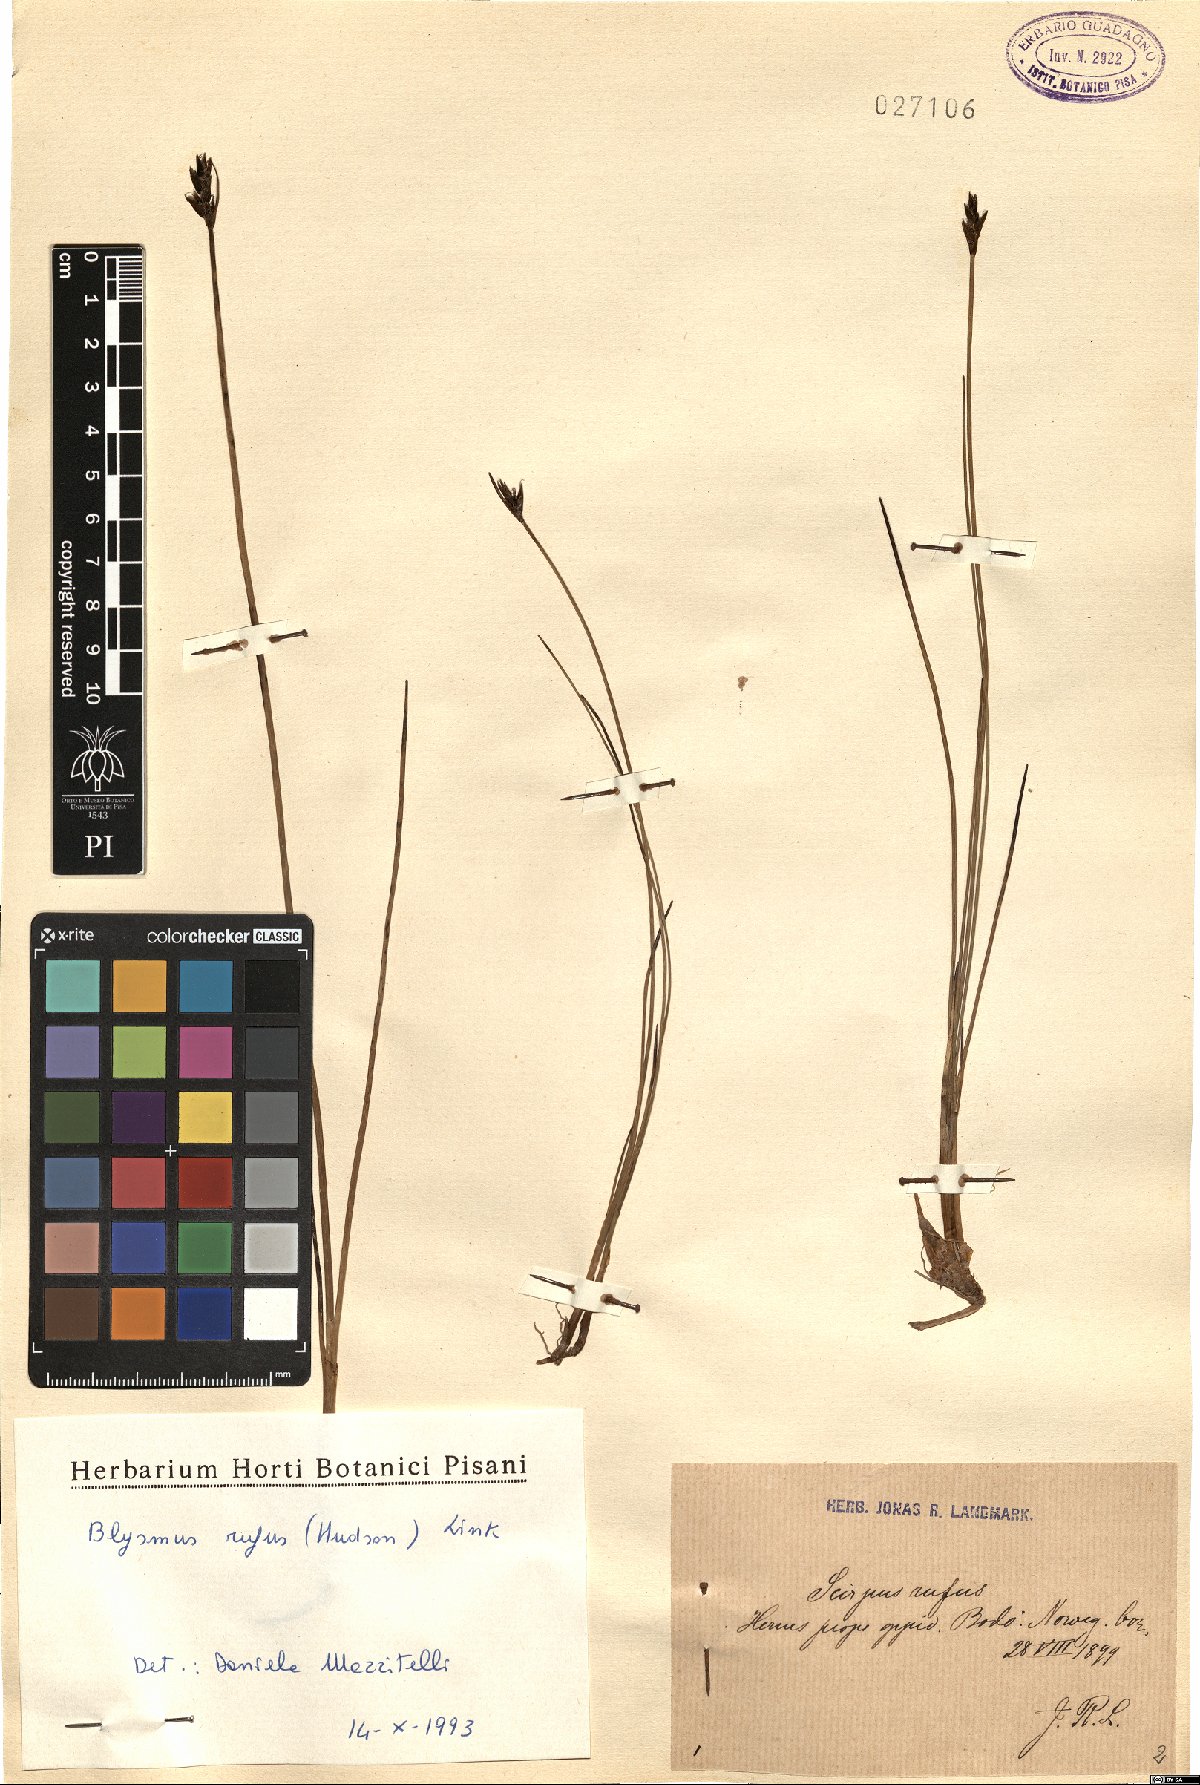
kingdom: Plantae
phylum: Tracheophyta
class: Liliopsida
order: Poales
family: Cyperaceae
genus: Blysmus
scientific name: Blysmus rufus
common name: Saltmarsh flat-sedge
